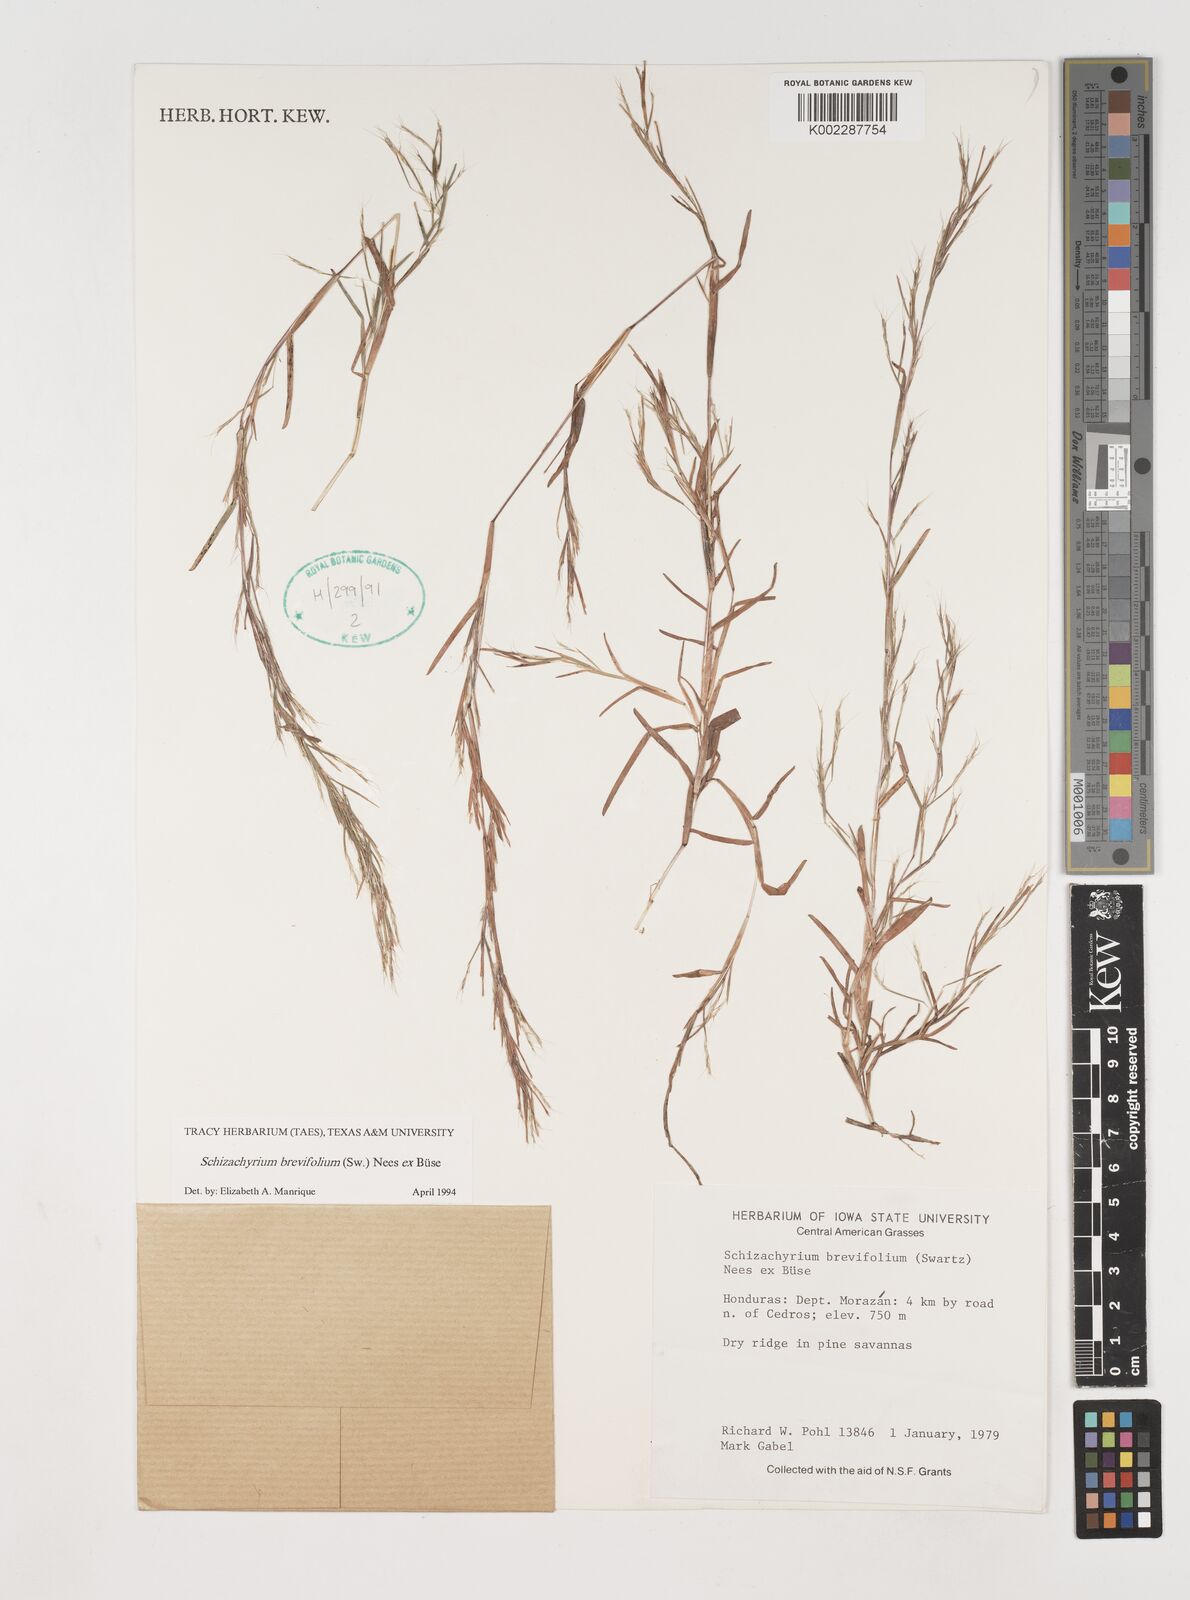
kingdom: Plantae
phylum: Tracheophyta
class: Liliopsida
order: Poales
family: Poaceae
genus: Schizachyrium
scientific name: Schizachyrium brevifolium
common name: Serillo dulce
